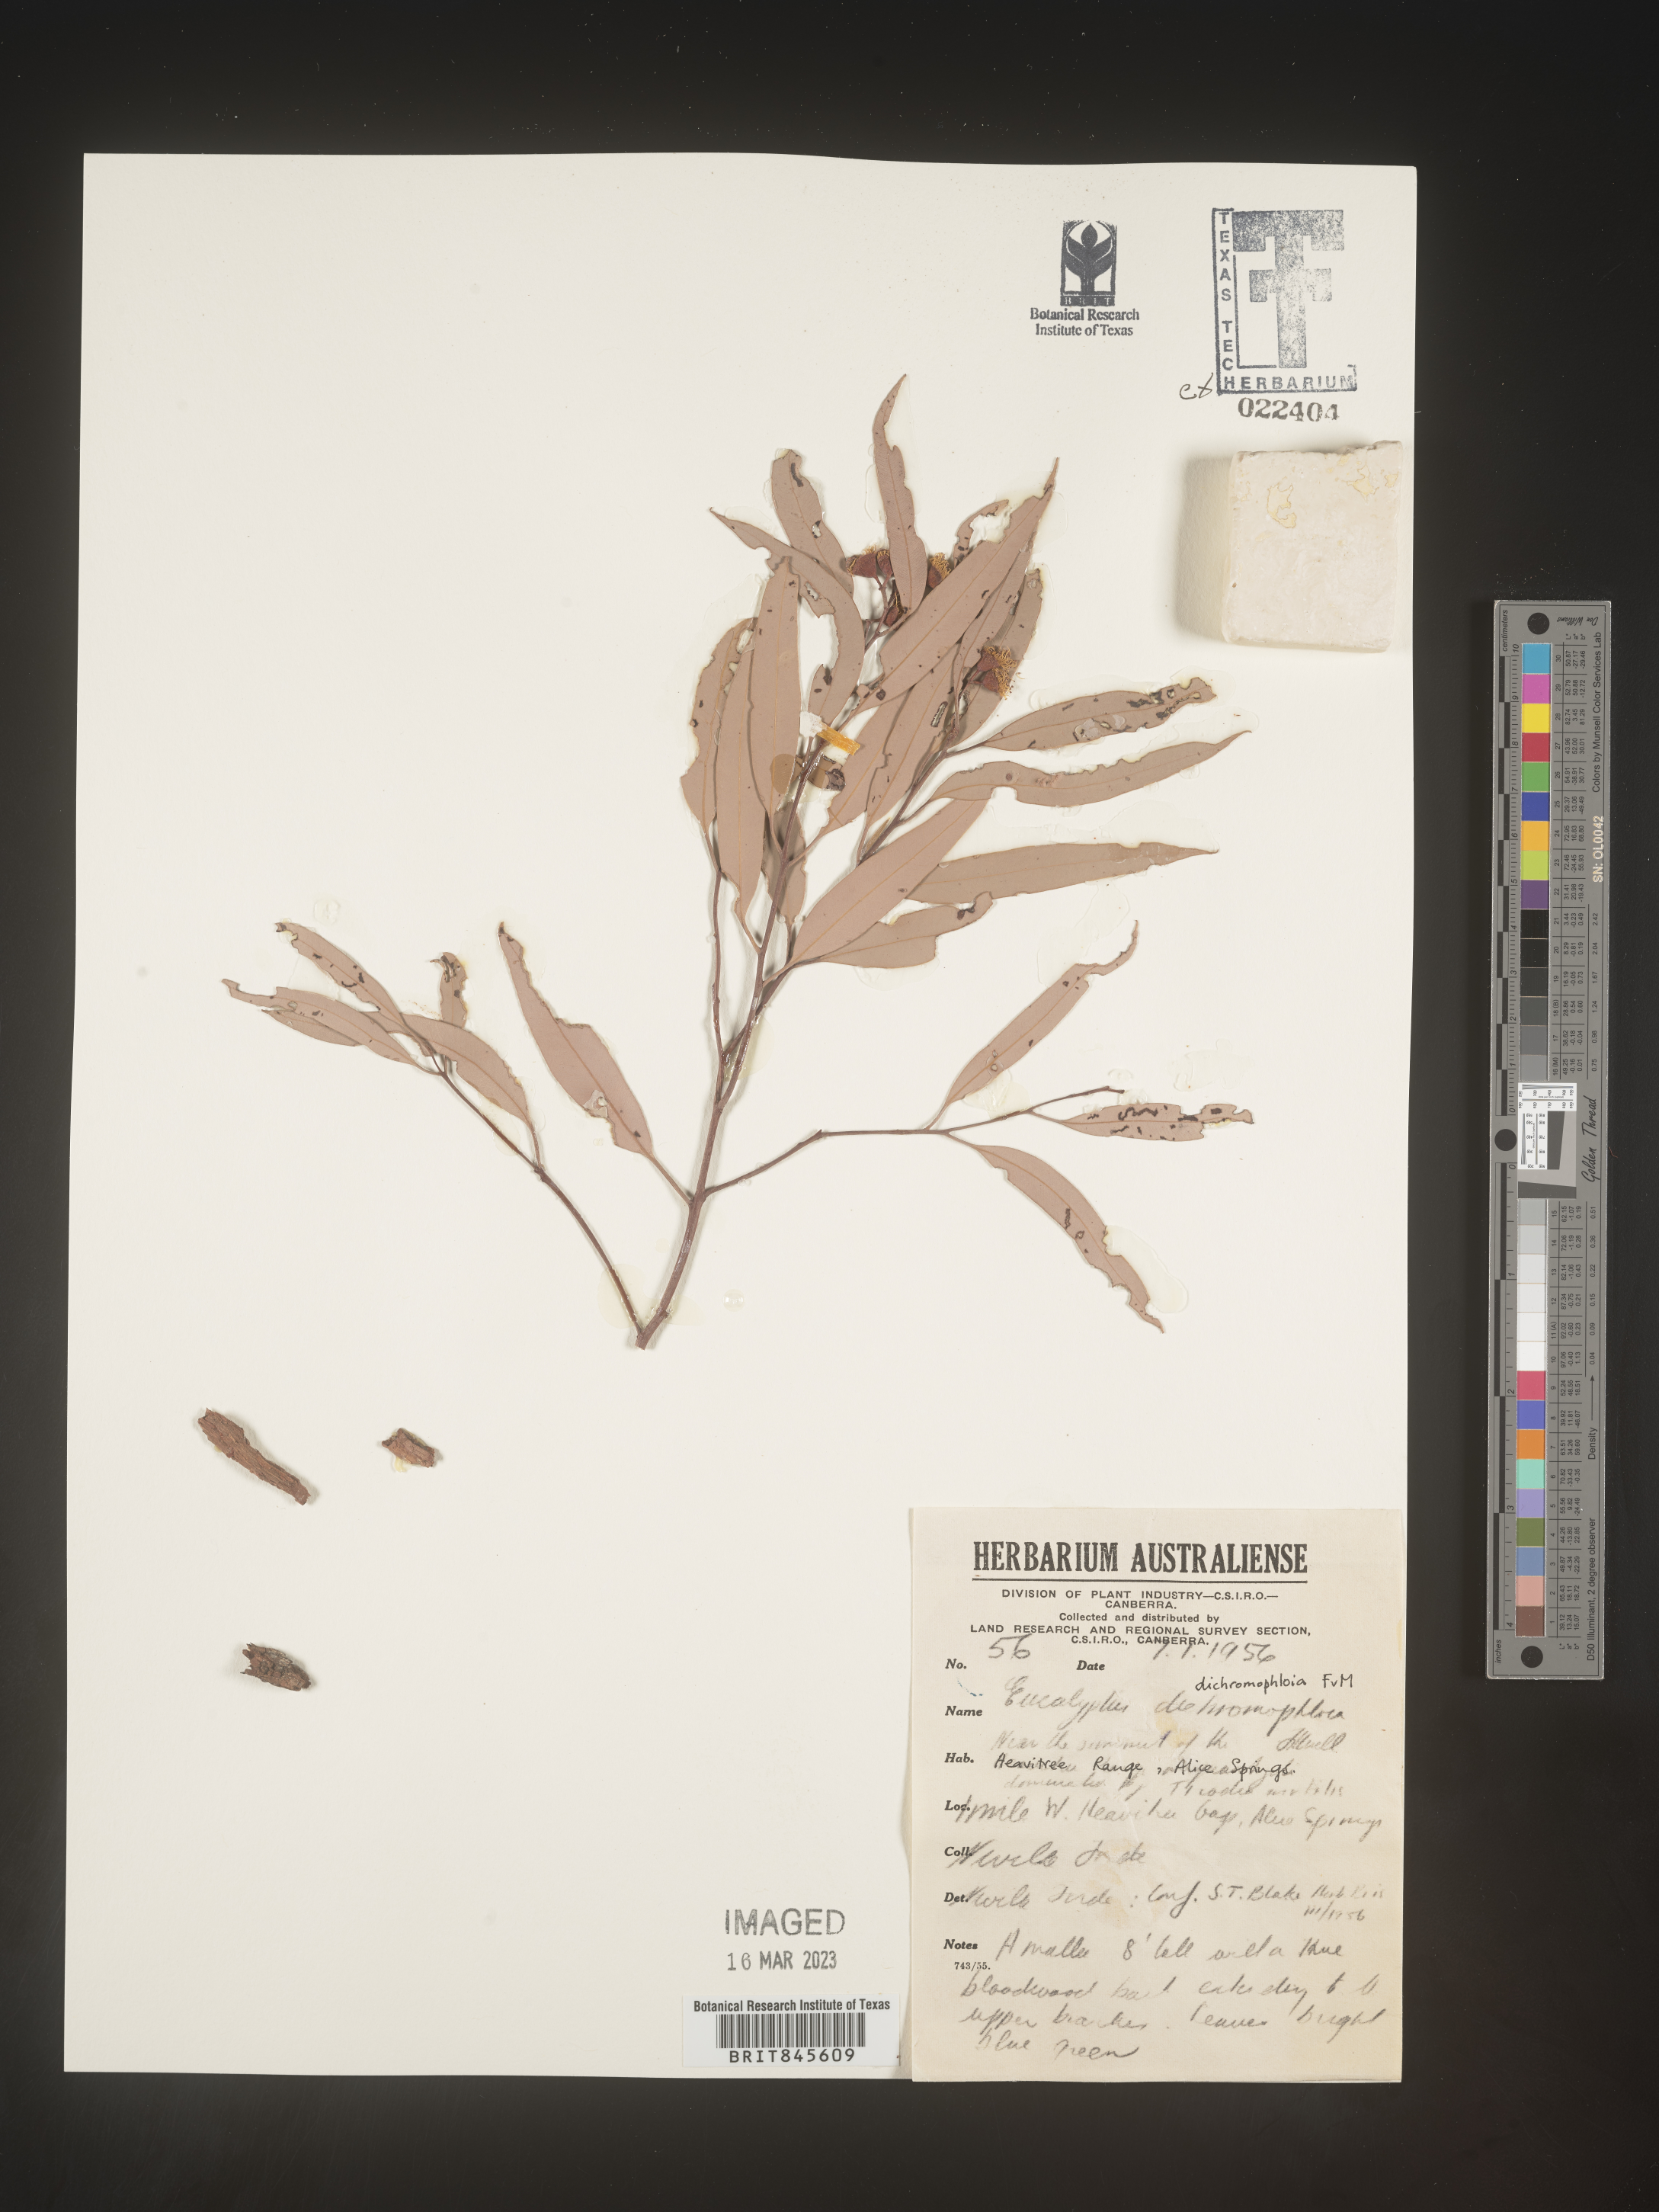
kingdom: Plantae
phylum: Tracheophyta
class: Magnoliopsida
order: Myrtales
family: Myrtaceae
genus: Eucalyptus
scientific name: Eucalyptus
